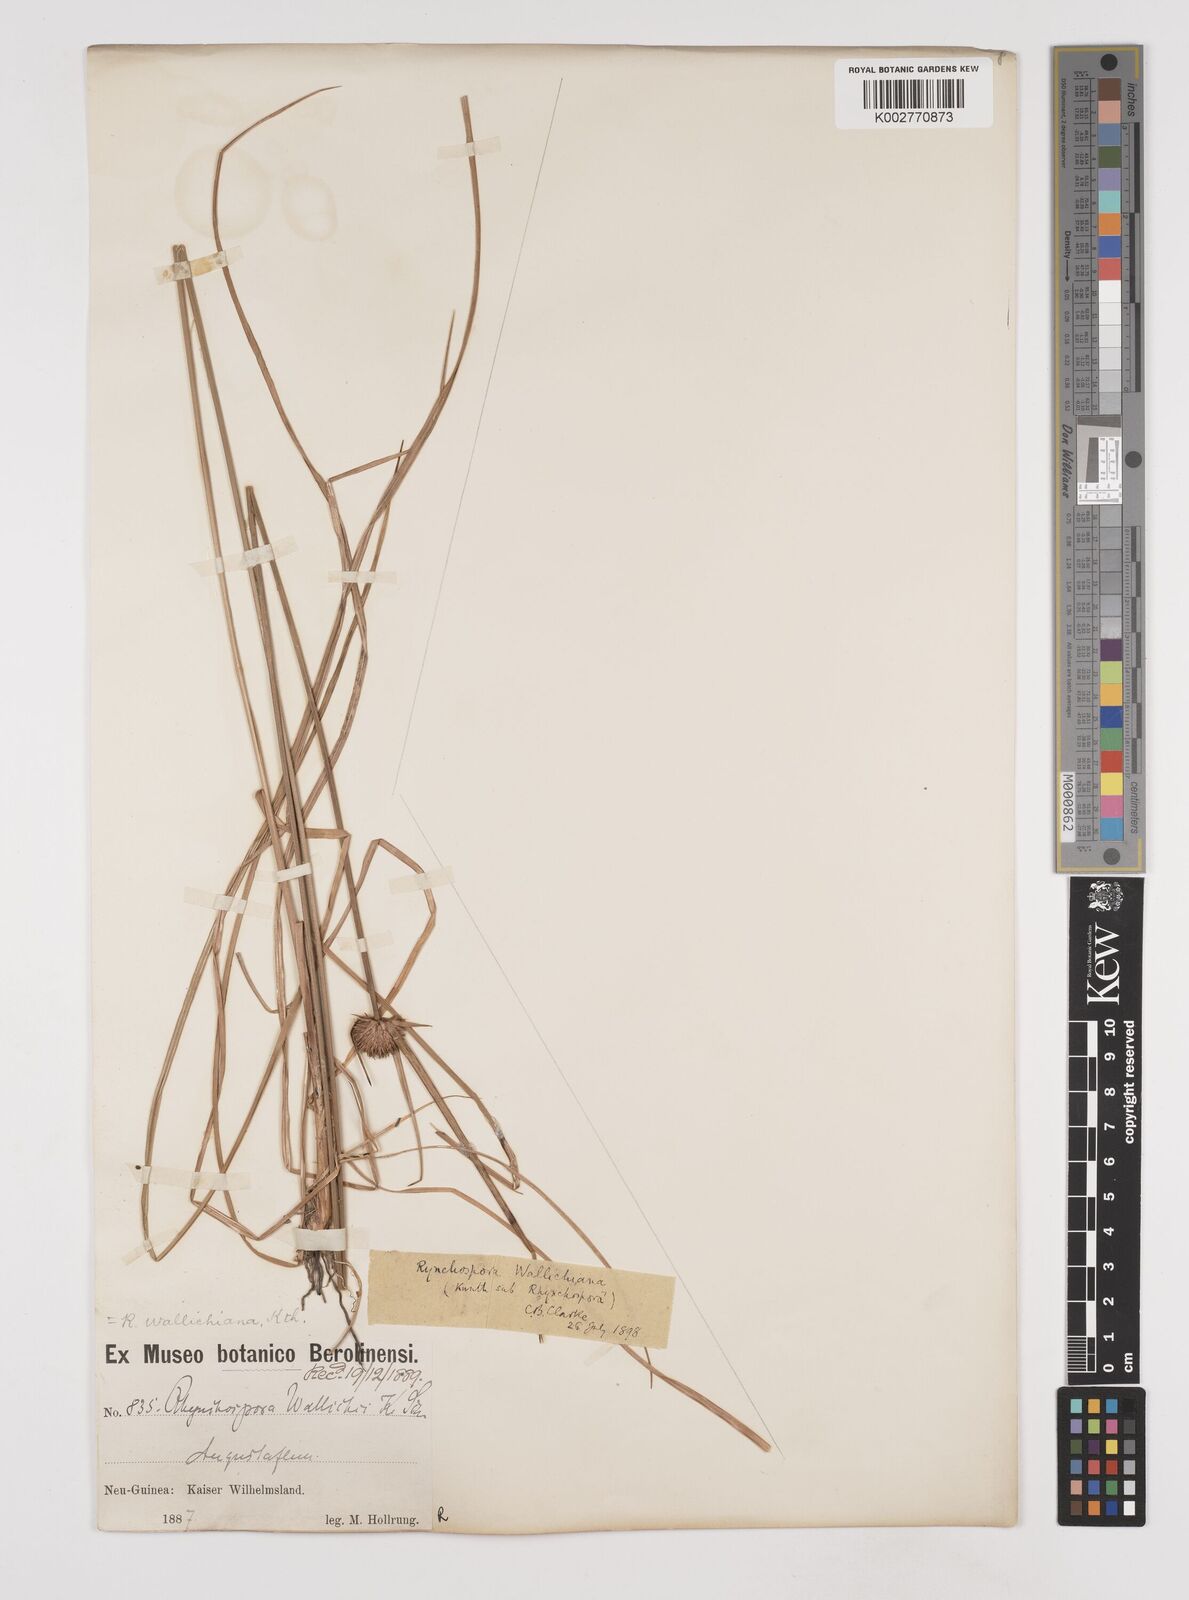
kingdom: Plantae
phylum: Tracheophyta
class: Liliopsida
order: Poales
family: Cyperaceae
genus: Rhynchospora
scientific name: Rhynchospora rubra
